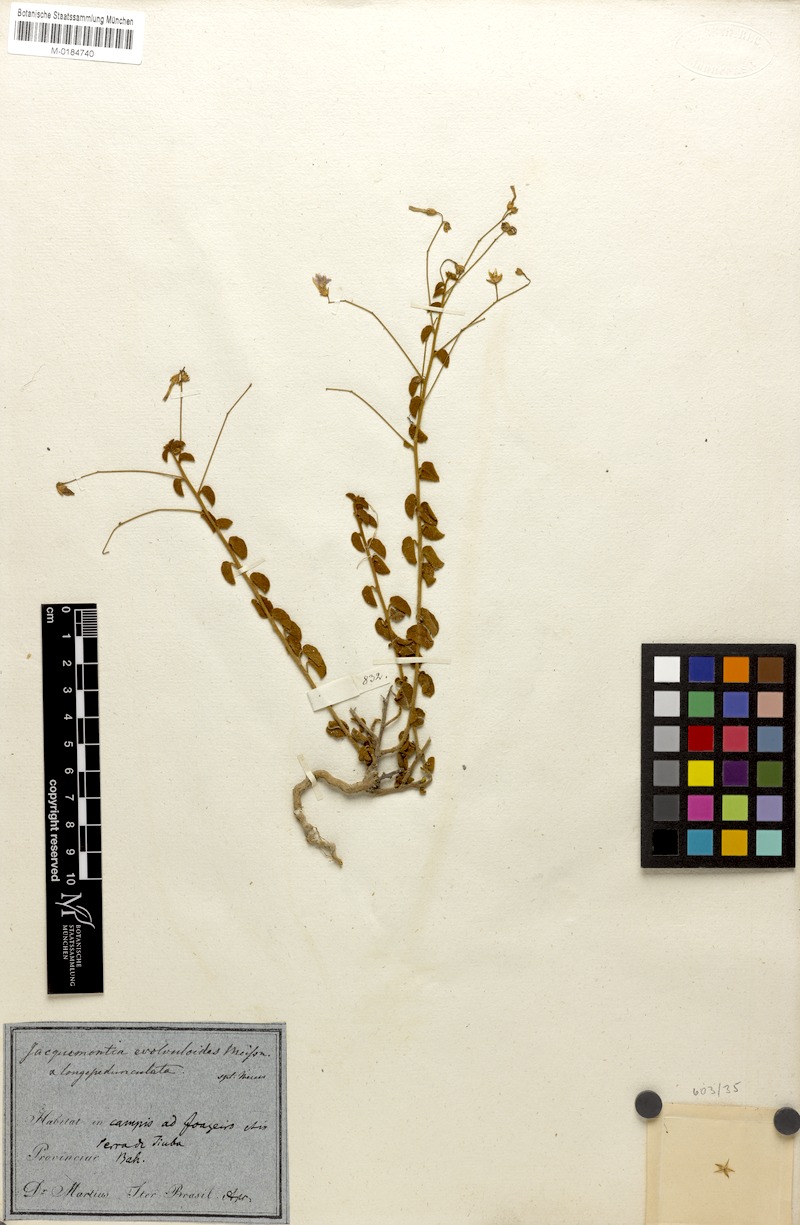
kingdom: Plantae
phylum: Tracheophyta
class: Magnoliopsida
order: Solanales
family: Convolvulaceae
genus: Jacquemontia
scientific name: Jacquemontia evolvuloides
